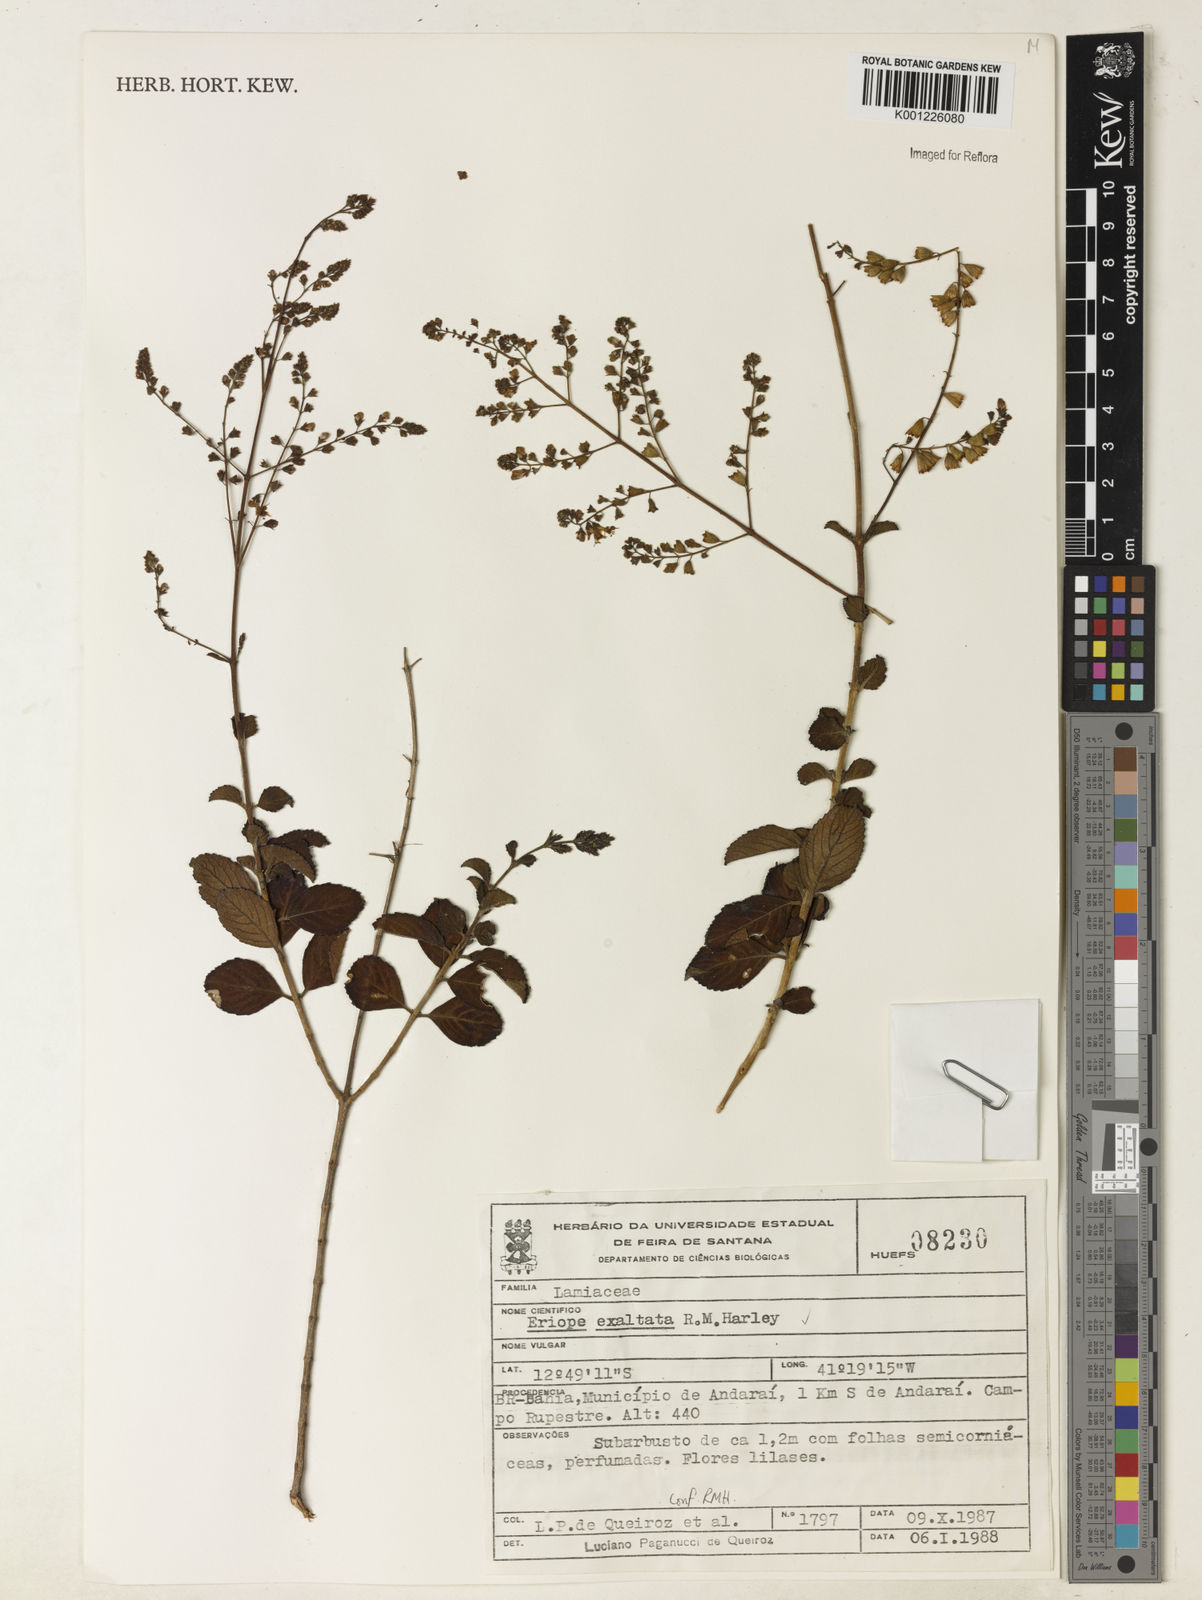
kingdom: Plantae
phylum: Tracheophyta
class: Magnoliopsida
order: Lamiales
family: Lamiaceae
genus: Eriope
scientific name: Eriope exaltata
